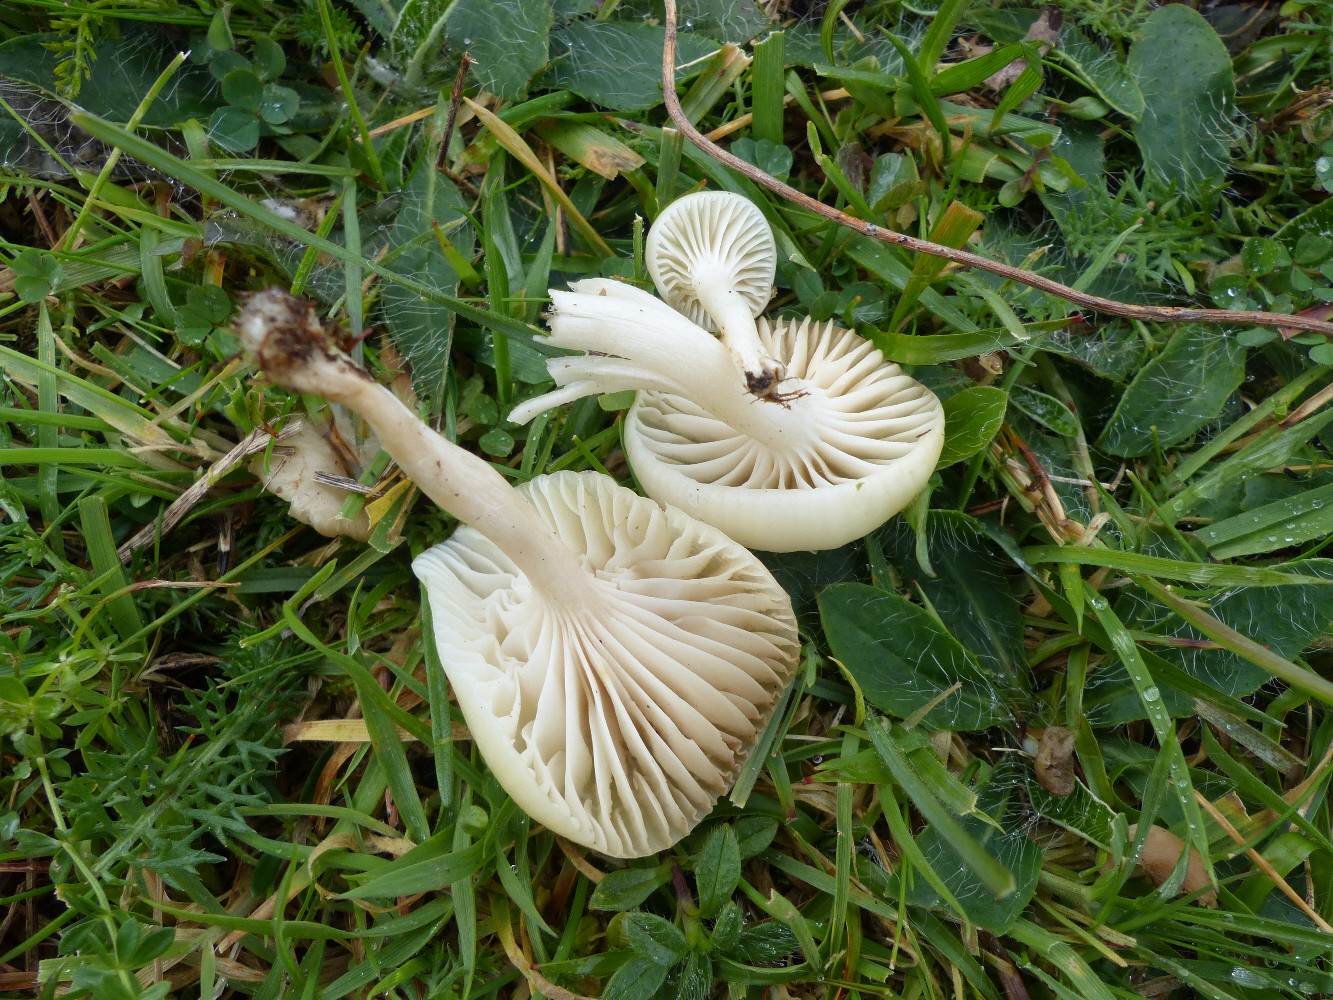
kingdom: Fungi
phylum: Basidiomycota
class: Agaricomycetes
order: Agaricales
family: Hygrophoraceae
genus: Cuphophyllus
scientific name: Cuphophyllus
